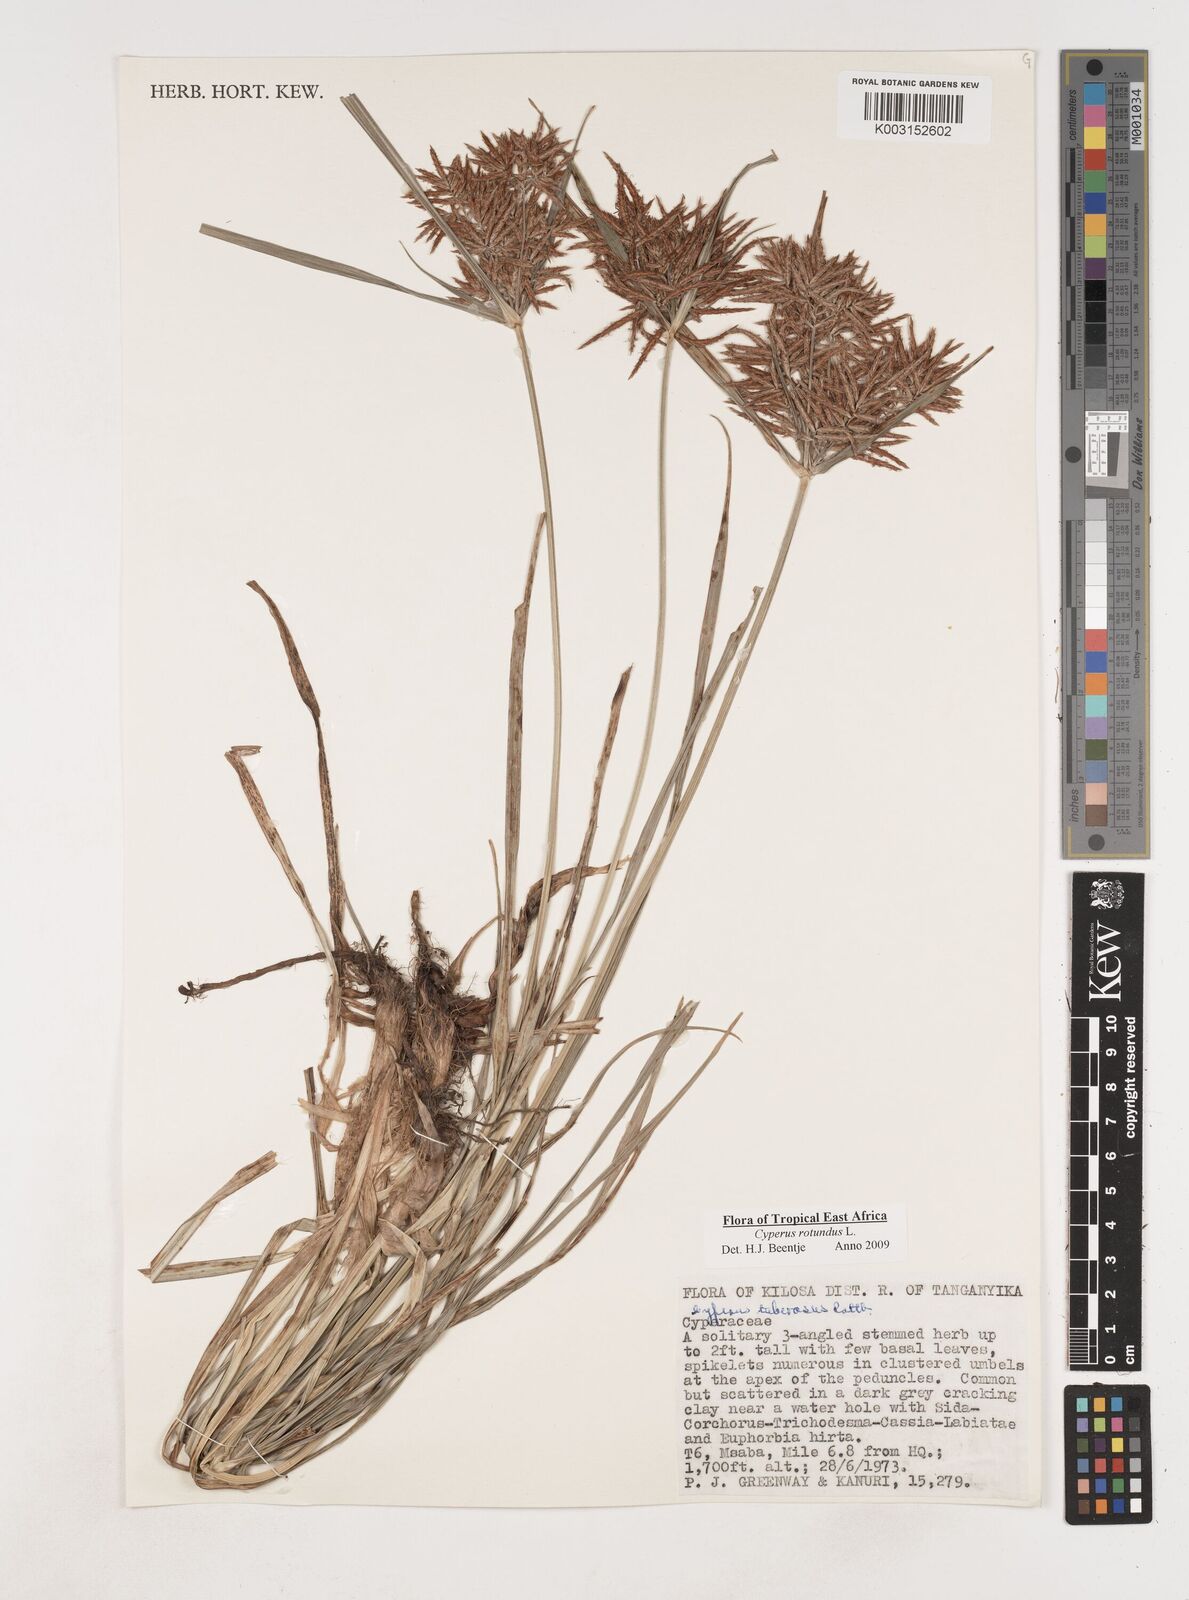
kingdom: Plantae
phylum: Tracheophyta
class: Liliopsida
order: Poales
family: Cyperaceae
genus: Cyperus
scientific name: Cyperus tuberosus
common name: Nut grass
